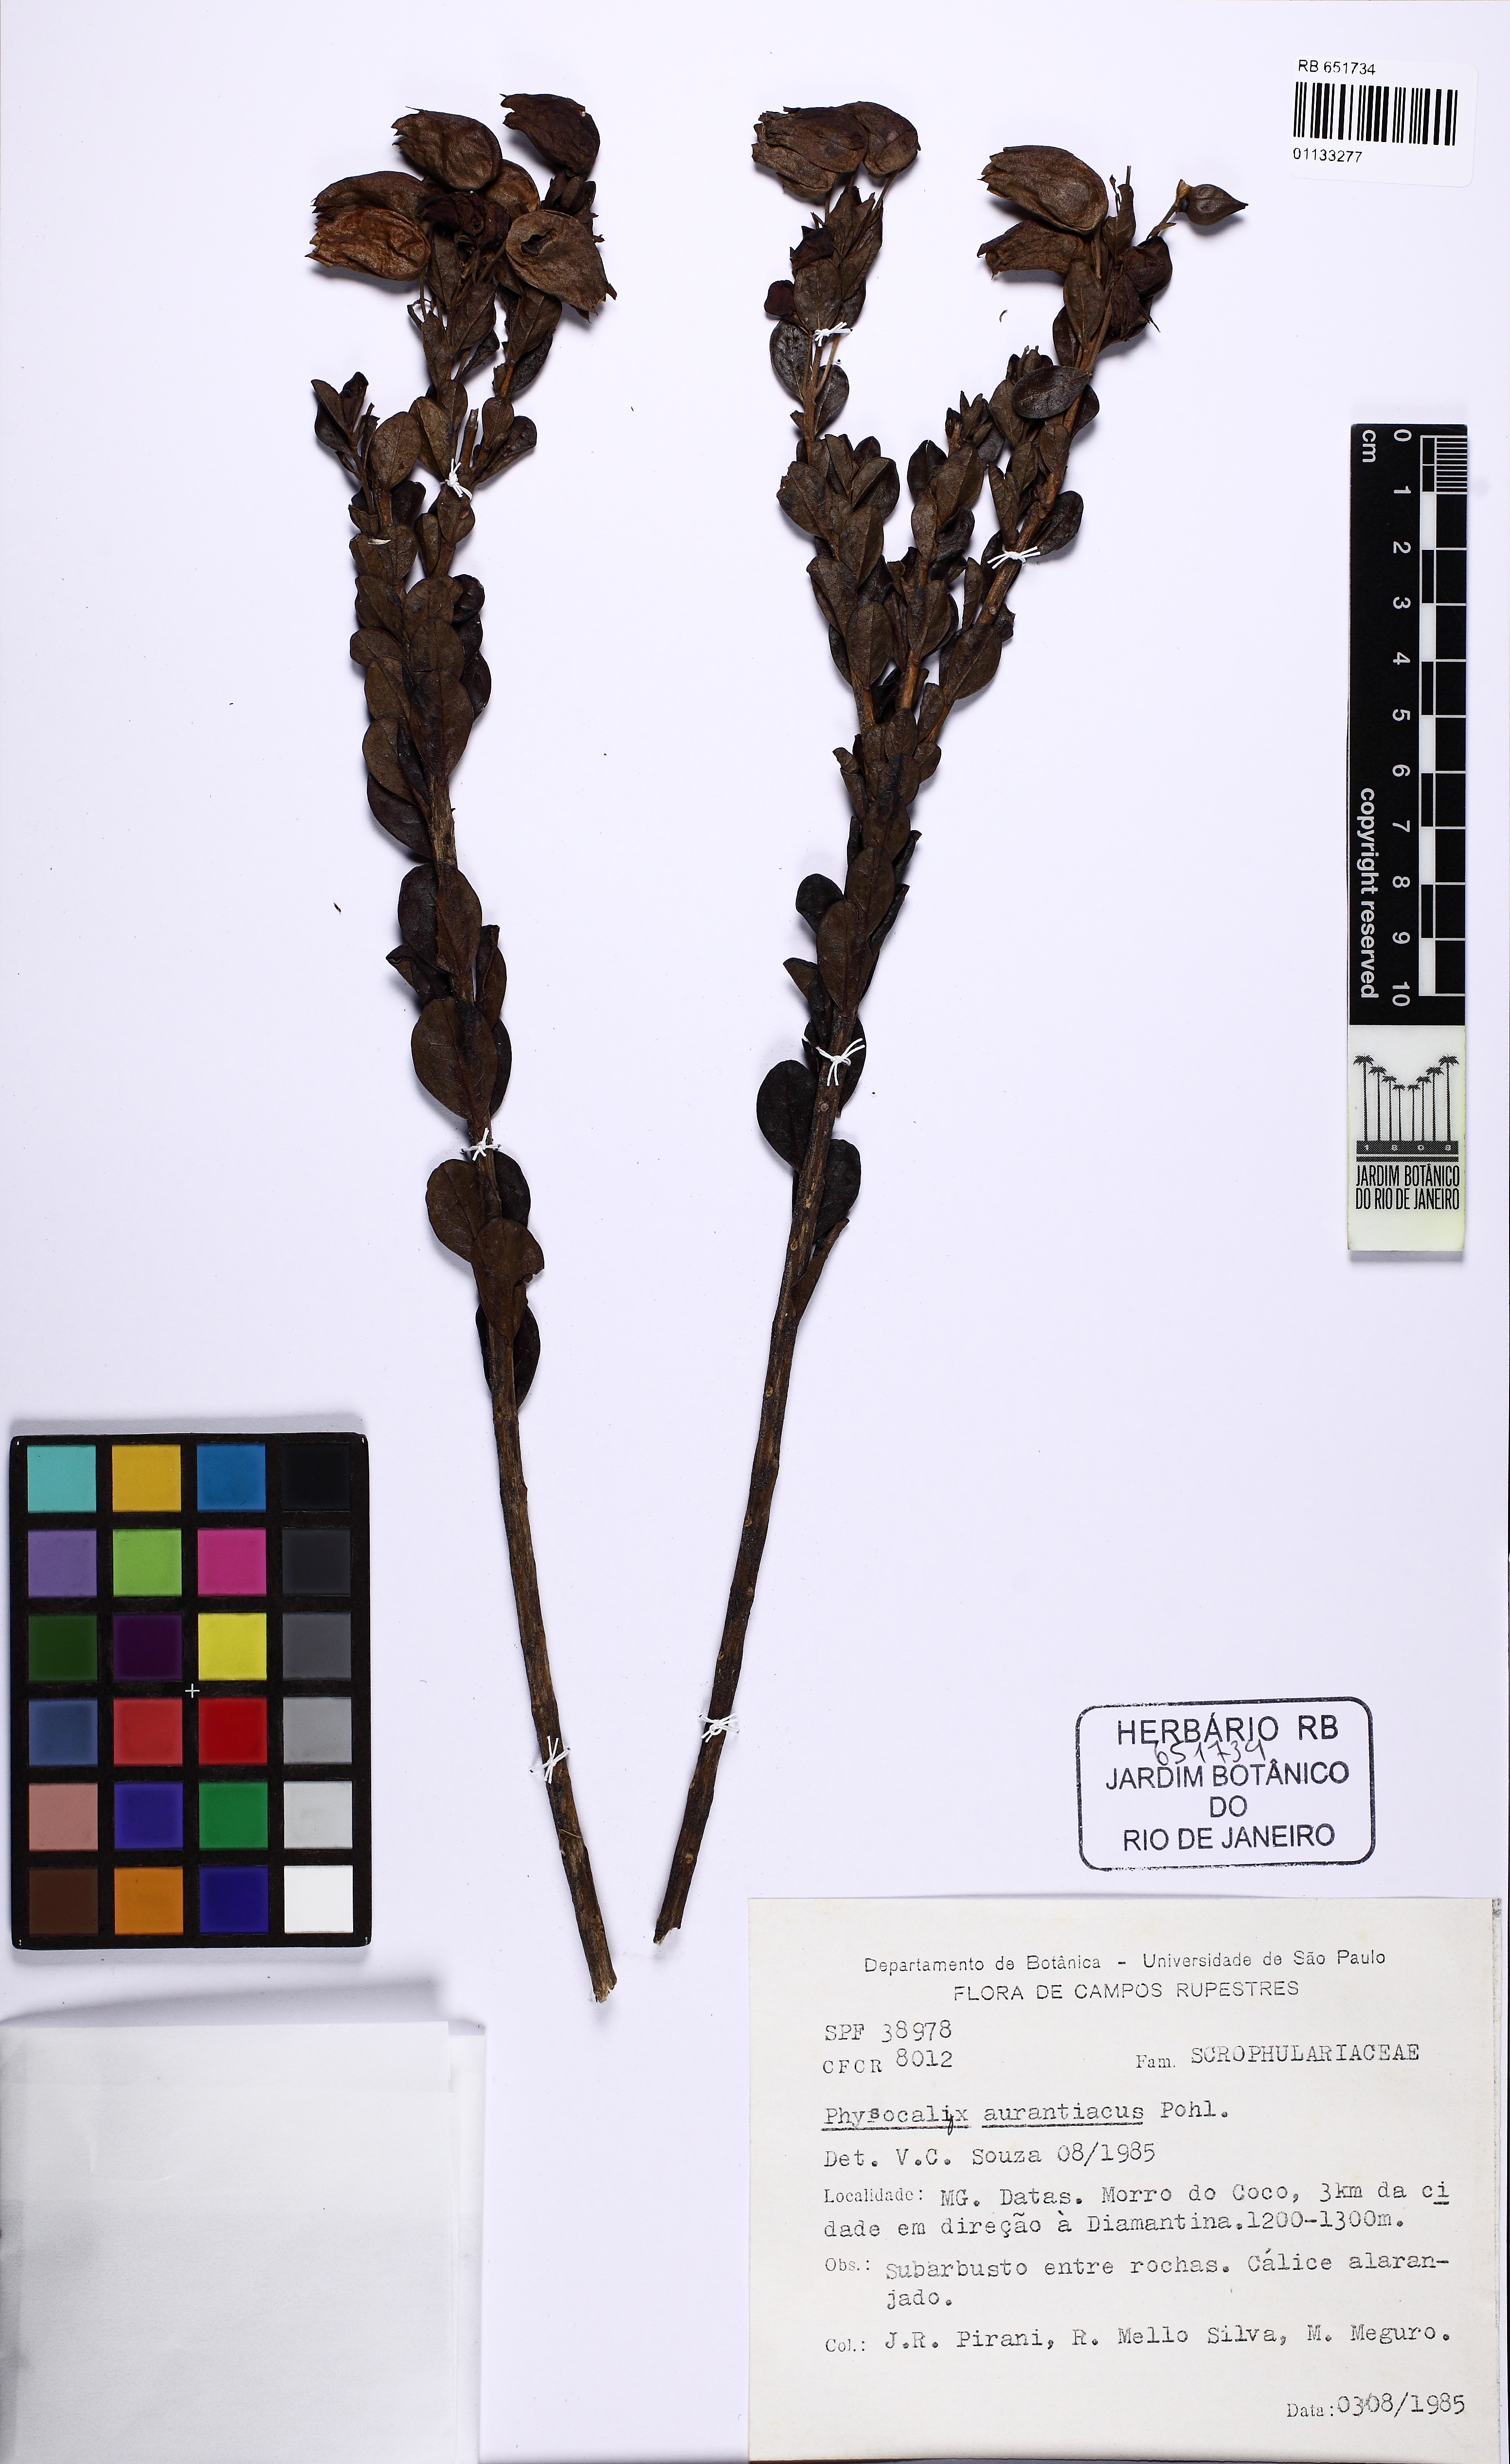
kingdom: Plantae
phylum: Tracheophyta
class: Magnoliopsida
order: Lamiales
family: Orobanchaceae
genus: Physocalyx
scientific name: Physocalyx aurantiacus
